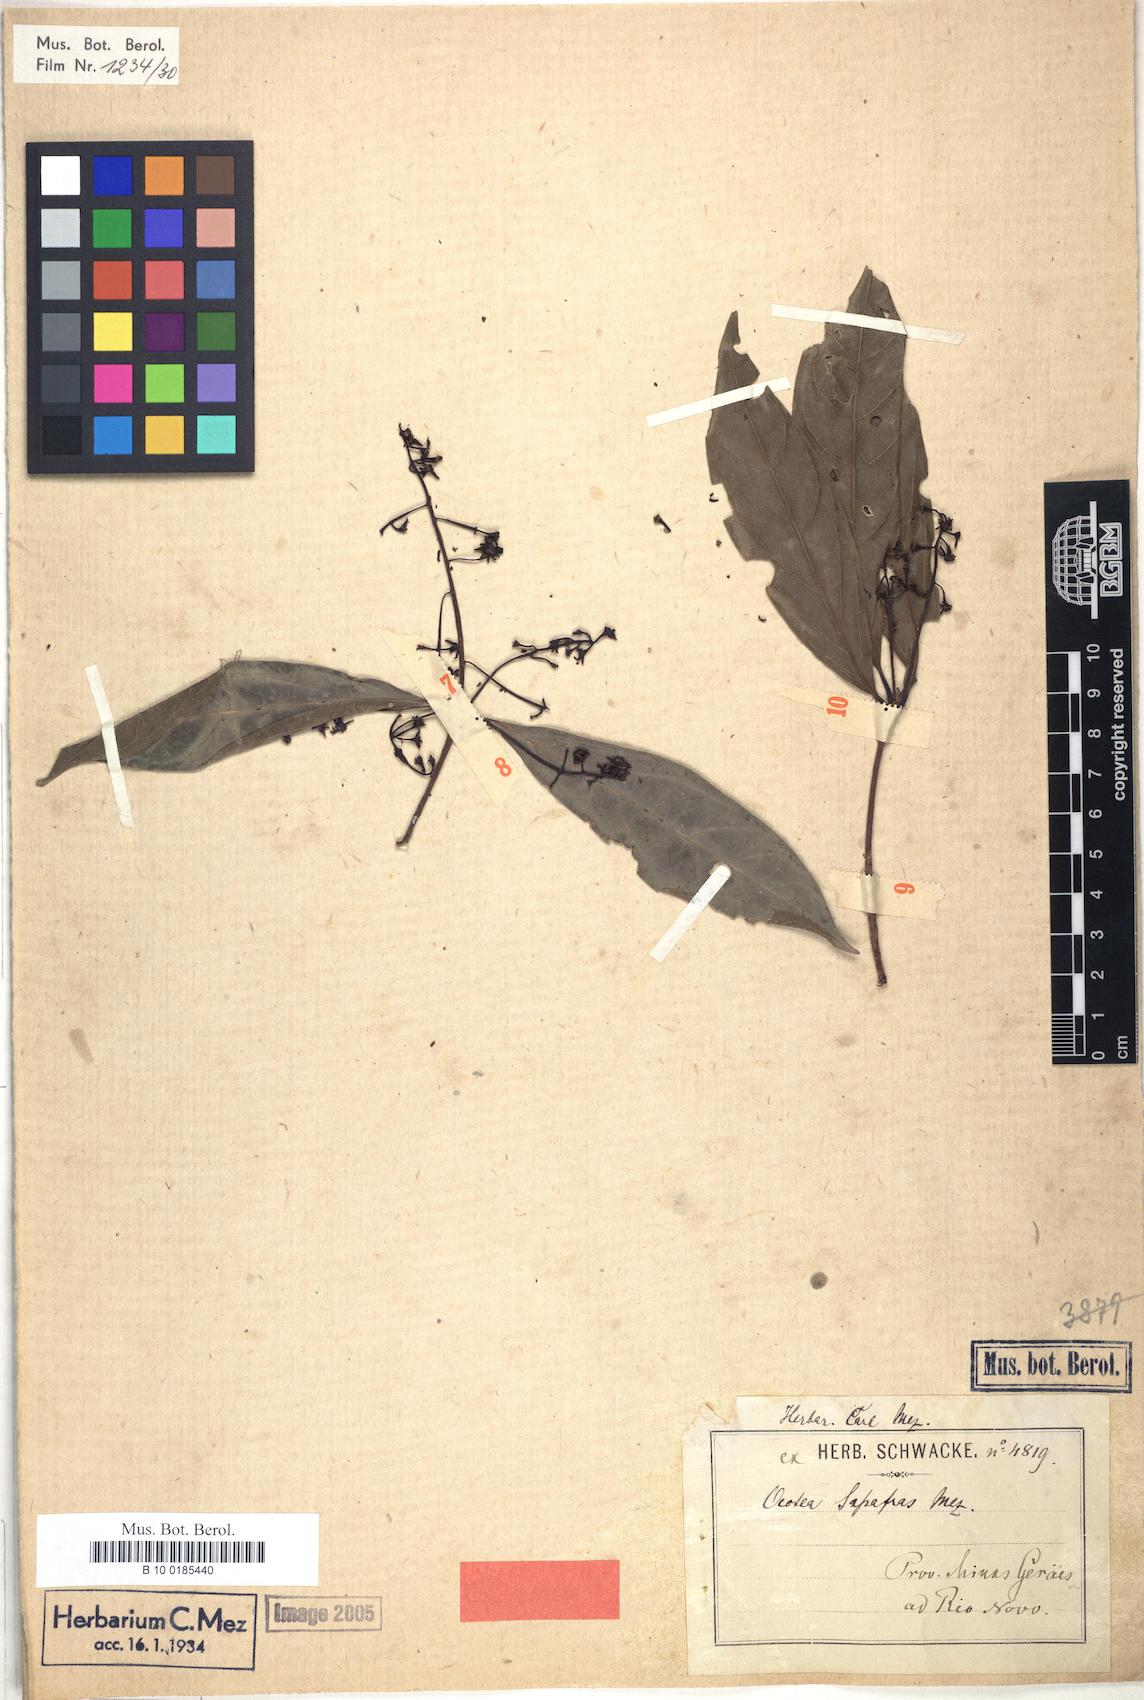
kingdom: Plantae
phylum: Tracheophyta
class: Magnoliopsida
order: Laurales
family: Lauraceae
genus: Mespilodaphne
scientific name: Mespilodaphne sassafras
